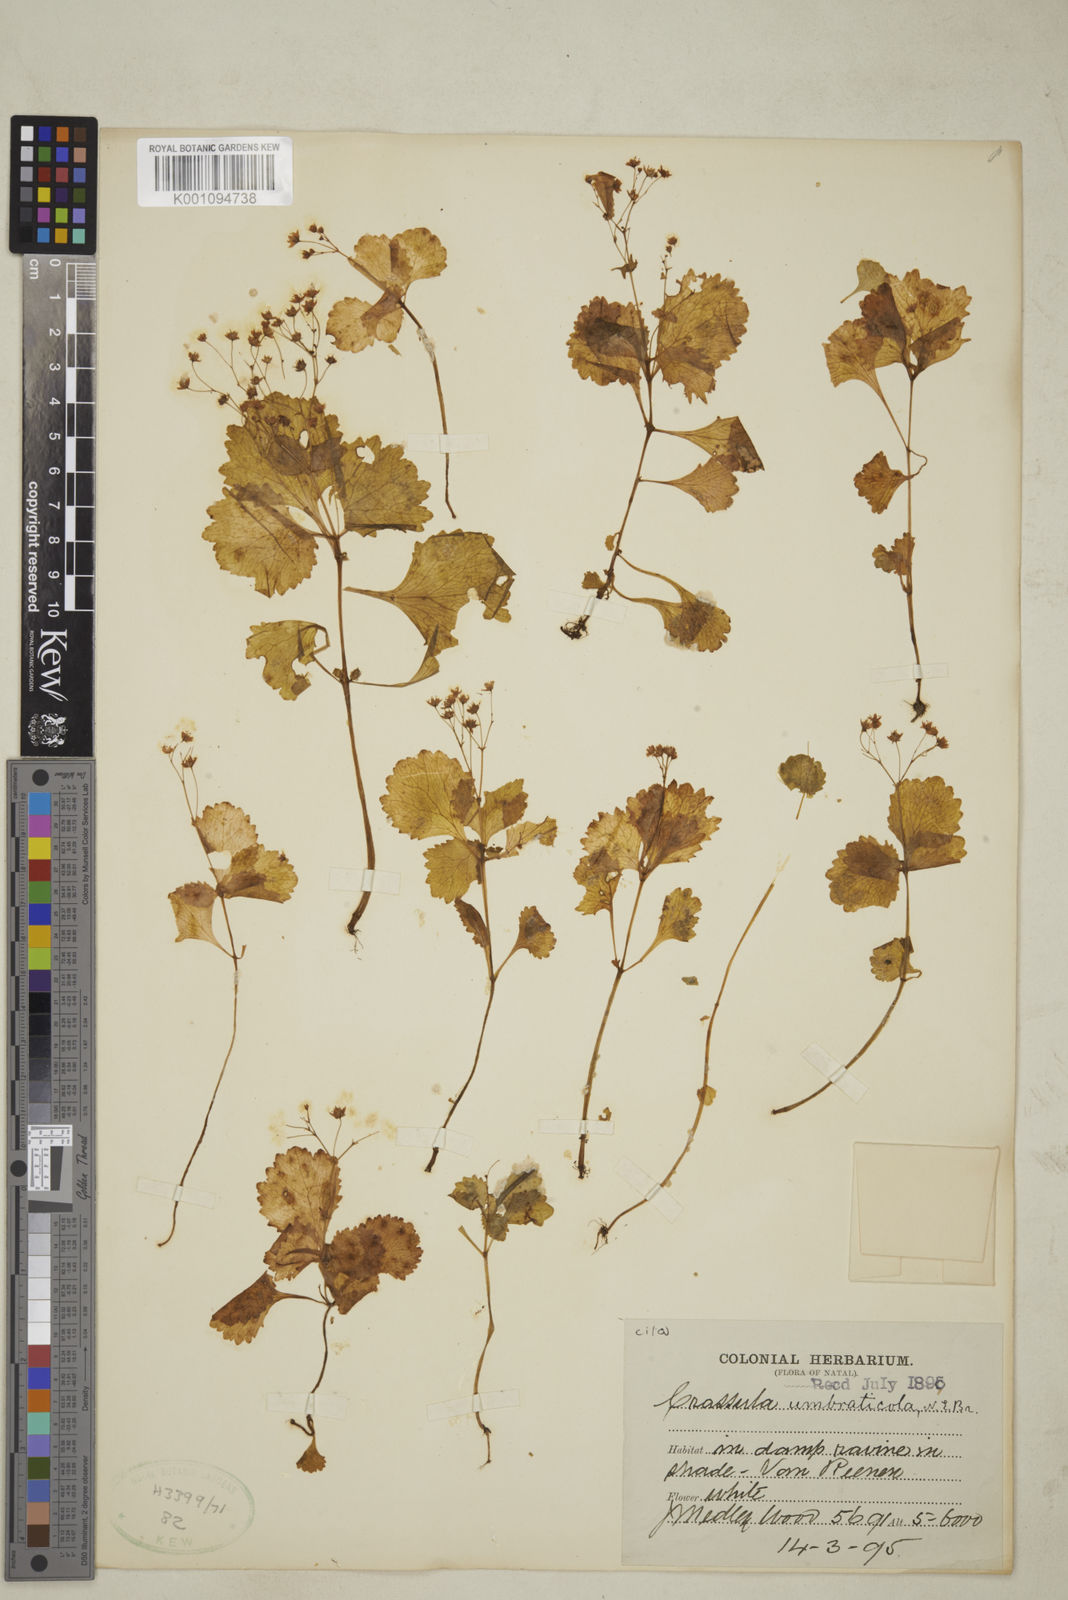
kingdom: Plantae
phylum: Tracheophyta
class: Magnoliopsida
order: Saxifragales
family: Crassulaceae
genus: Crassula
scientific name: Crassula umbraticola
